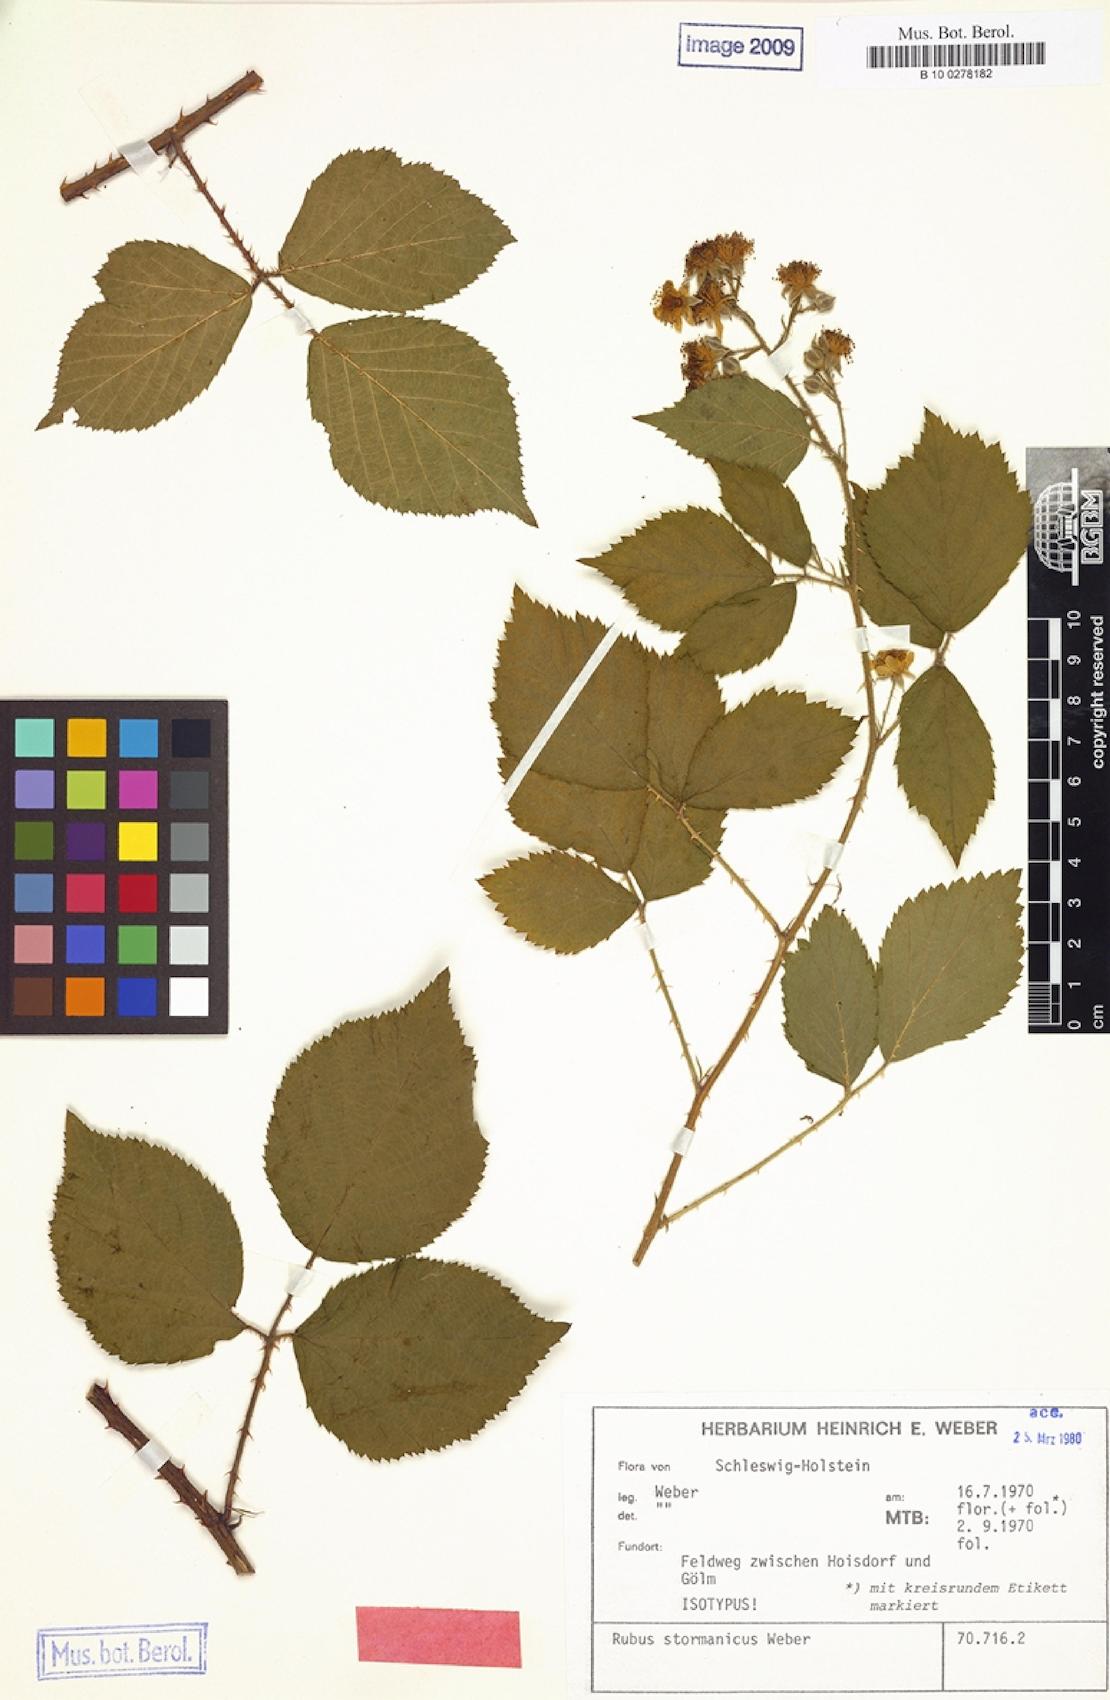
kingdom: Plantae
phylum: Tracheophyta
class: Magnoliopsida
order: Rosales
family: Rosaceae
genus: Rubus
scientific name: Rubus stormanicus
